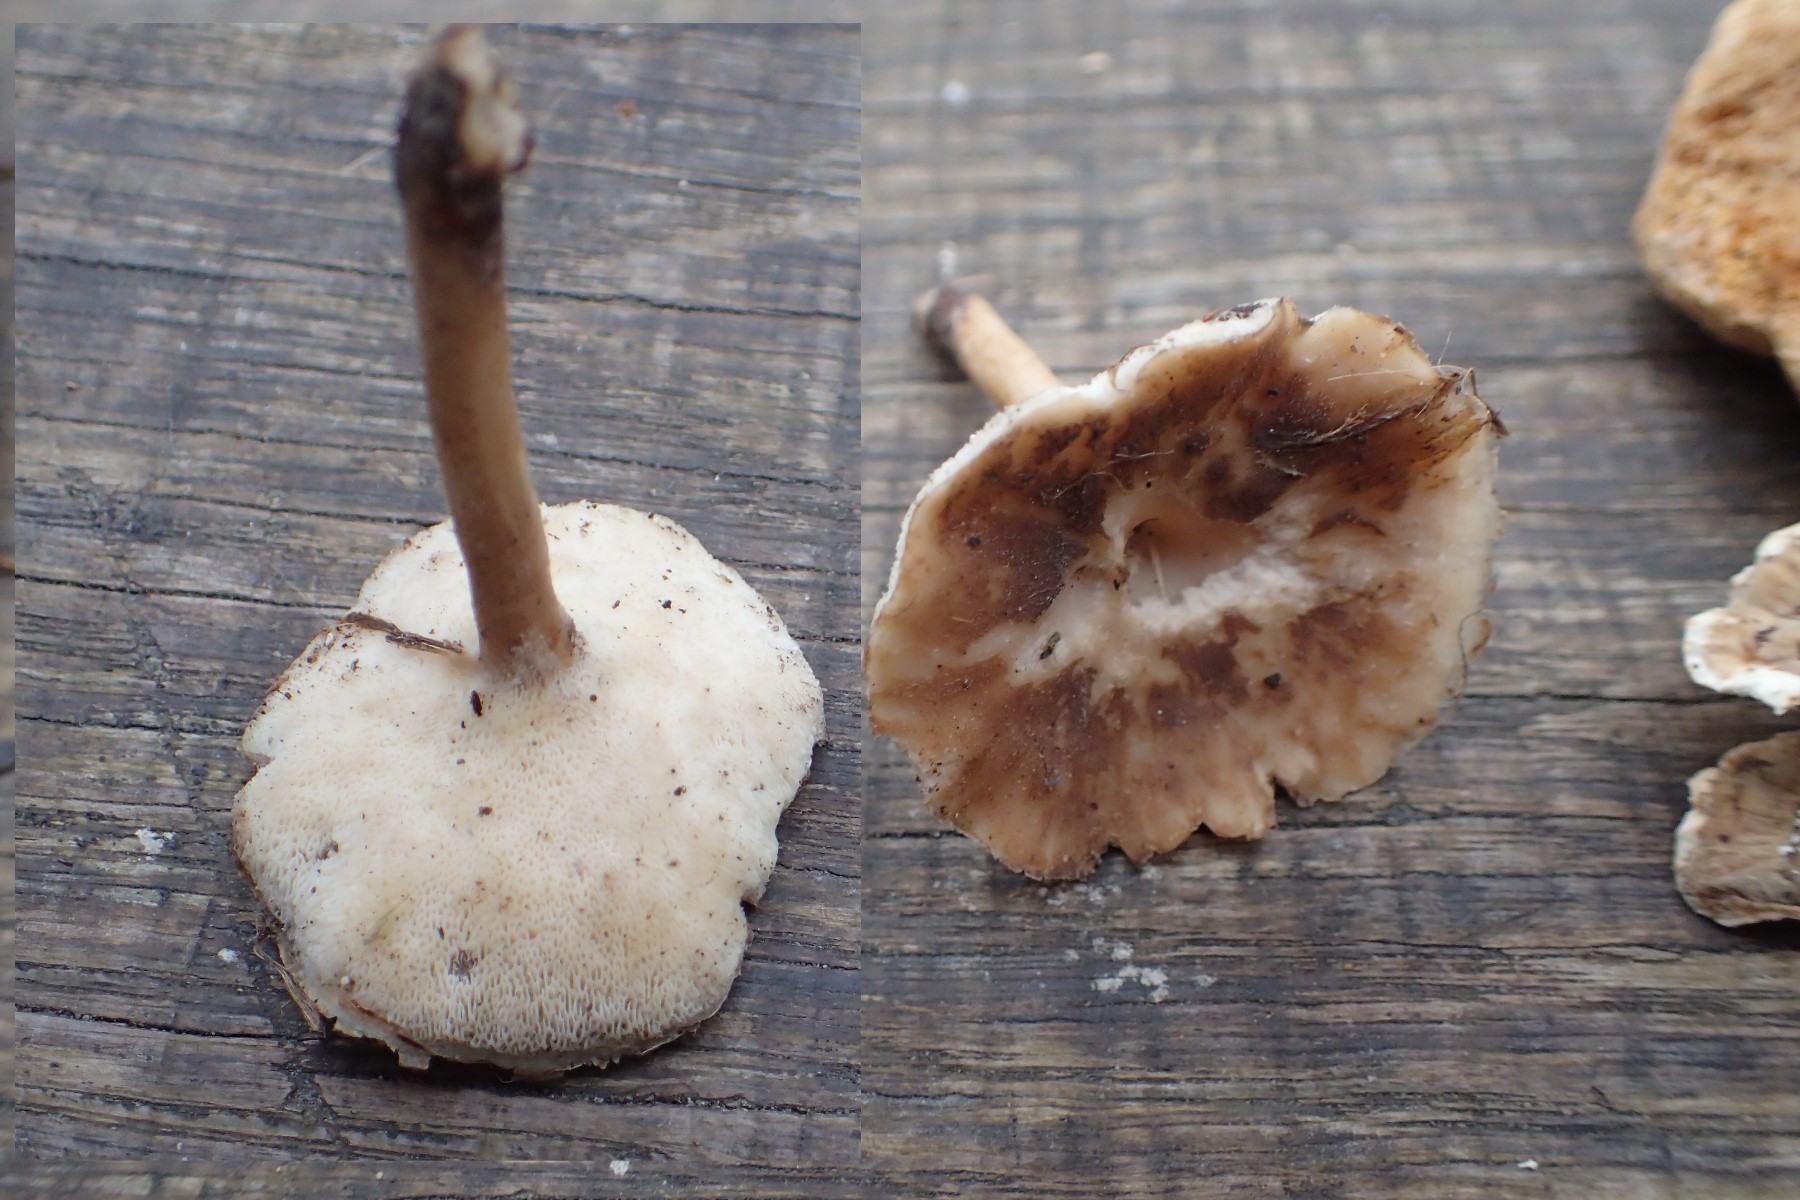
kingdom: Fungi
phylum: Basidiomycota
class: Agaricomycetes
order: Polyporales
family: Polyporaceae
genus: Lentinus
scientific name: Lentinus brumalis
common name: vinter-stilkporesvamp
